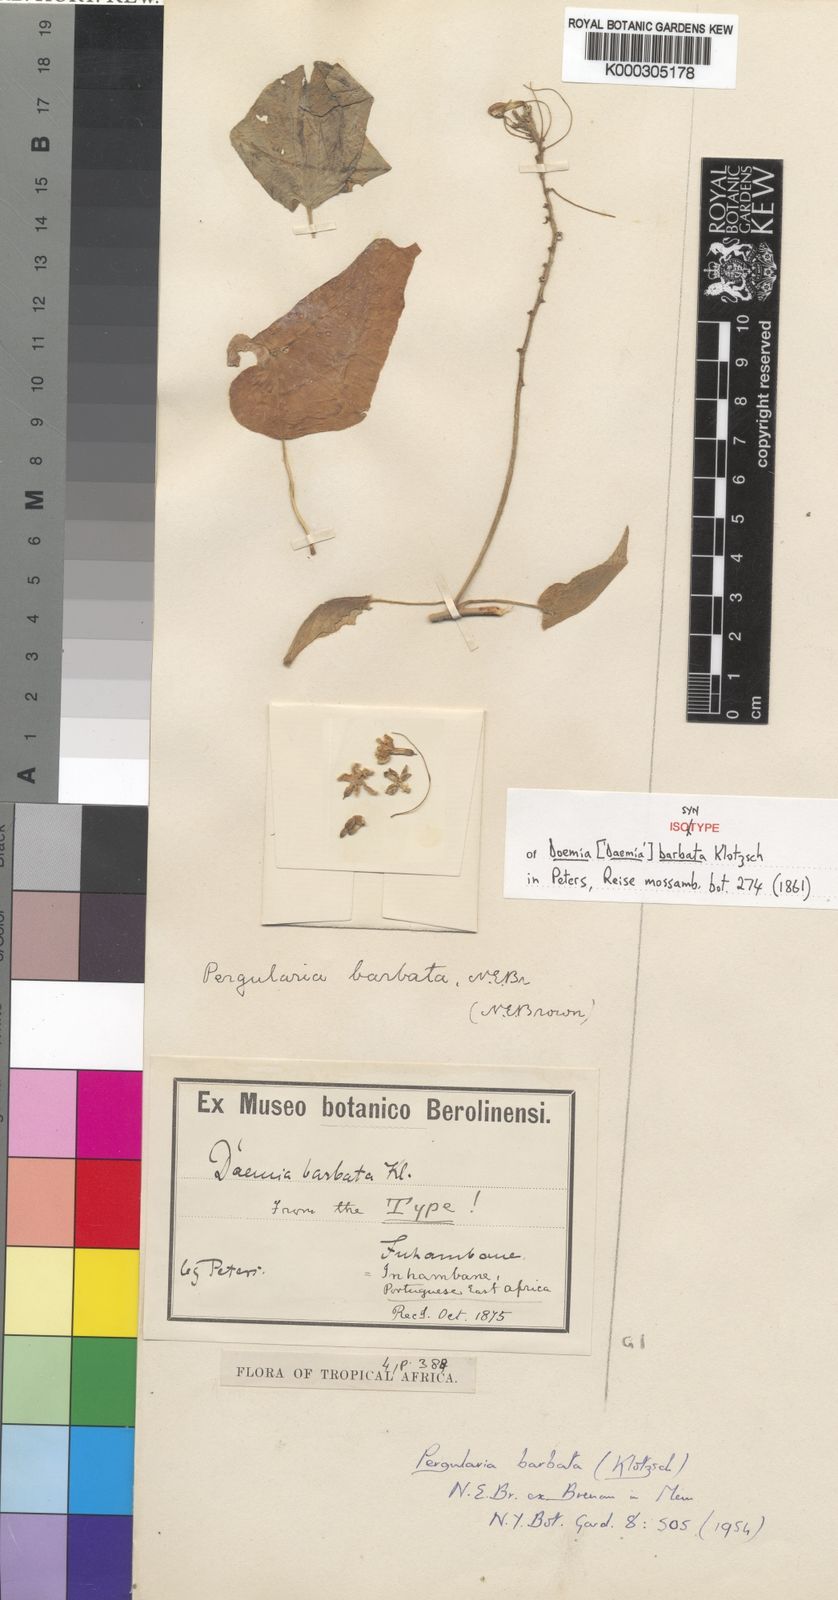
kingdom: Plantae
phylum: Tracheophyta
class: Magnoliopsida
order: Gentianales
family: Apocynaceae
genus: Pergularia
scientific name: Pergularia daemia
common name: Trellis-vine
